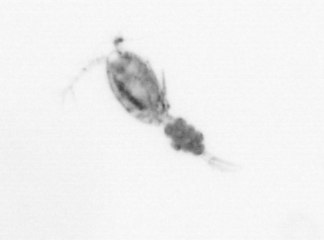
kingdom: Animalia
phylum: Arthropoda
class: Copepoda
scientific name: Copepoda
